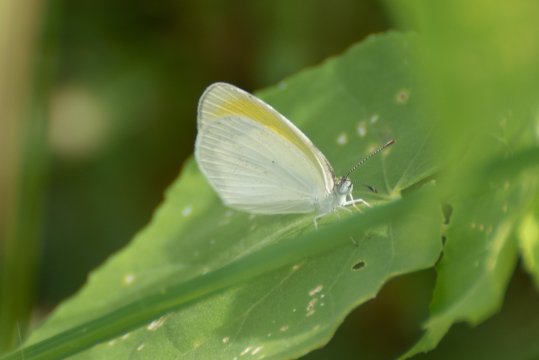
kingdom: Animalia
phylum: Arthropoda
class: Insecta
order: Lepidoptera
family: Pieridae
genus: Eurema
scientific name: Eurema elathea
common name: Banded Yellow
